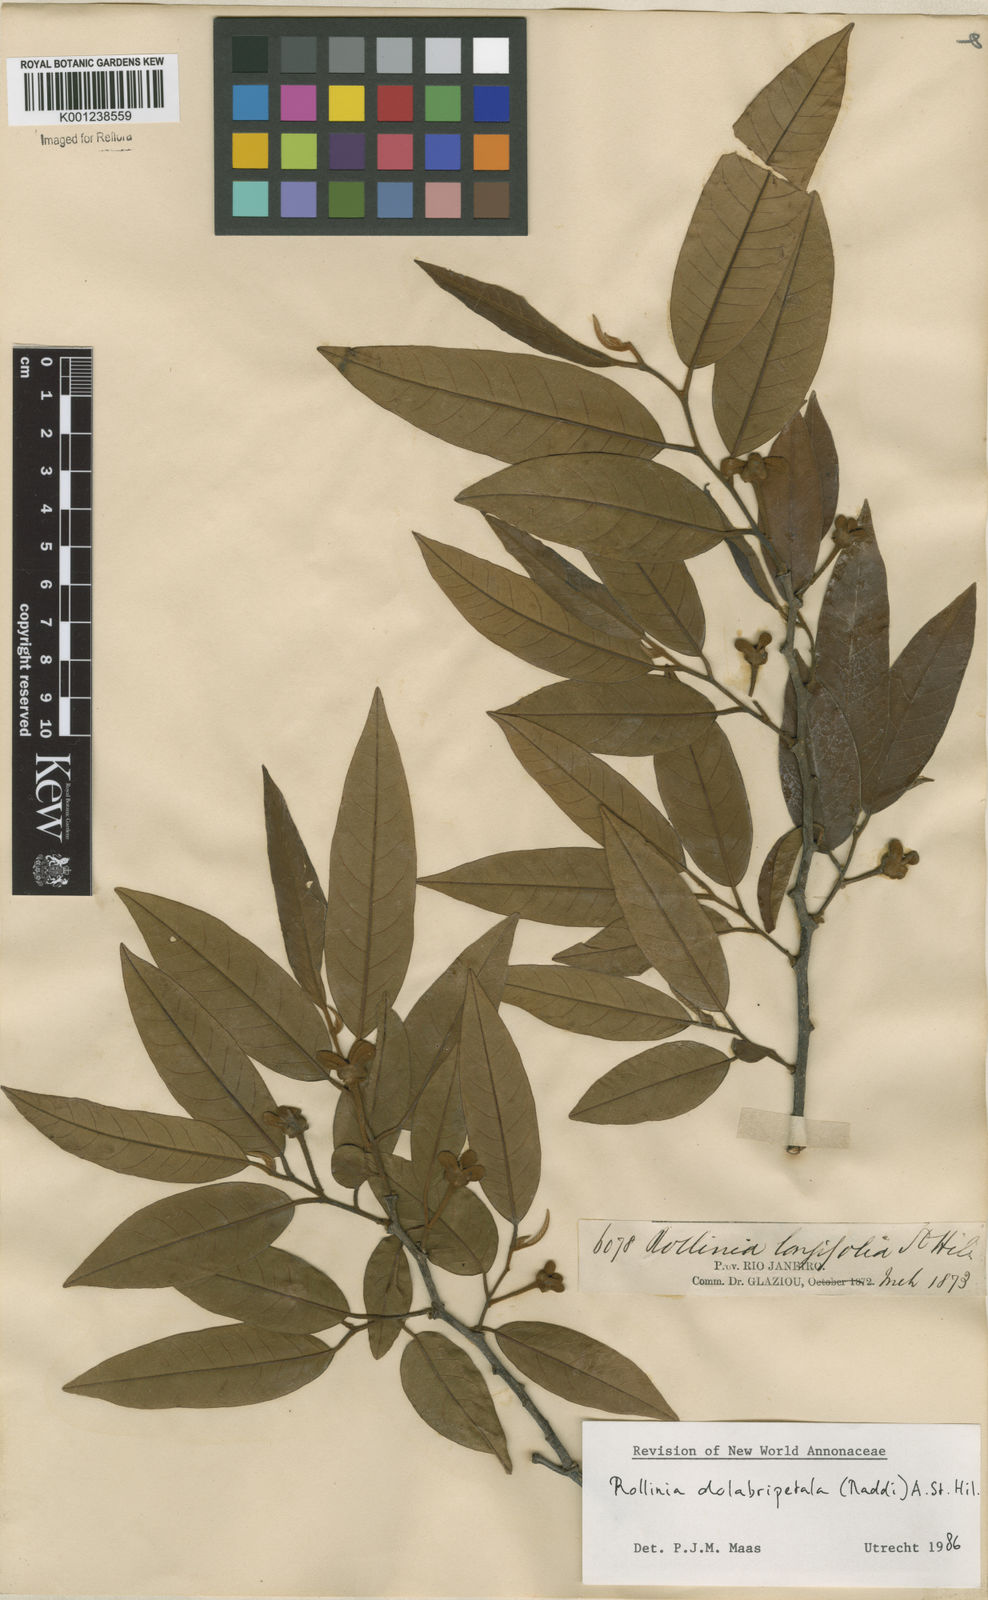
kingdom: Plantae
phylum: Tracheophyta
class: Magnoliopsida
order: Magnoliales
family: Annonaceae
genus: Annona
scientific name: Annona
